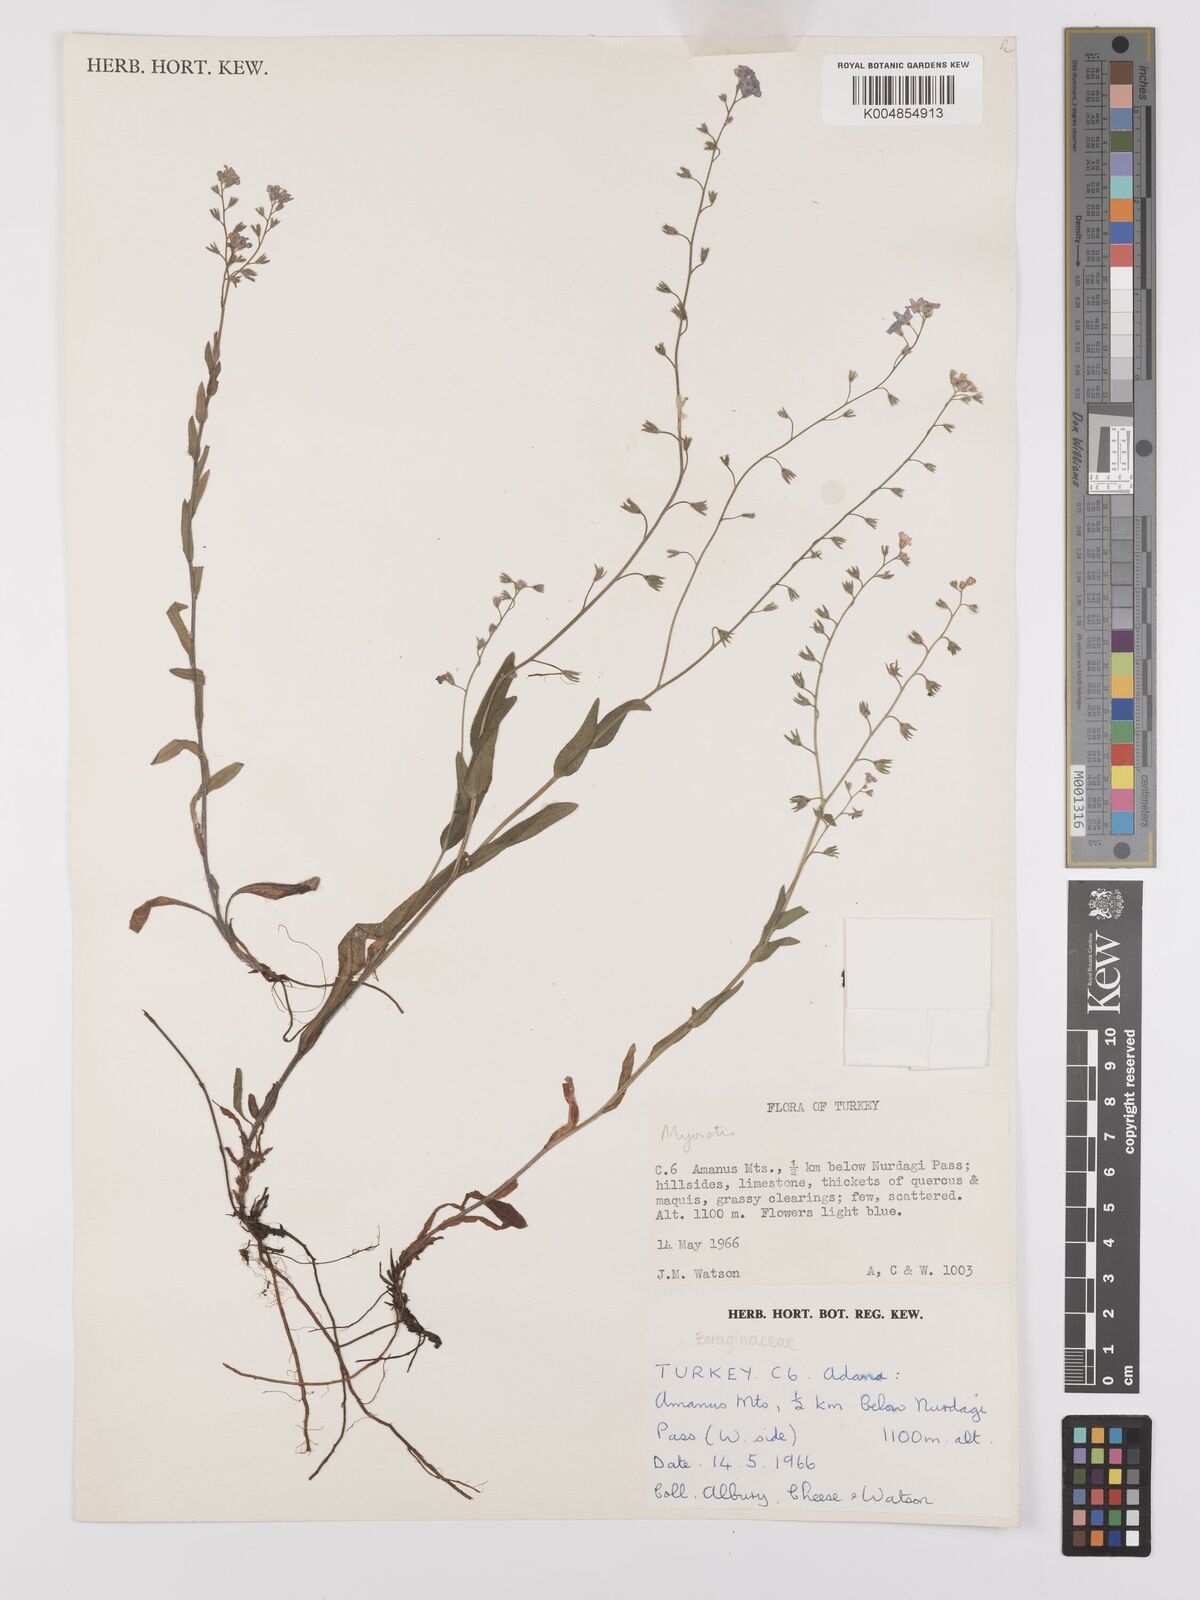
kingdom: Plantae
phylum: Tracheophyta
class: Magnoliopsida
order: Boraginales
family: Boraginaceae
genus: Myosotis
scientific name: Myosotis
